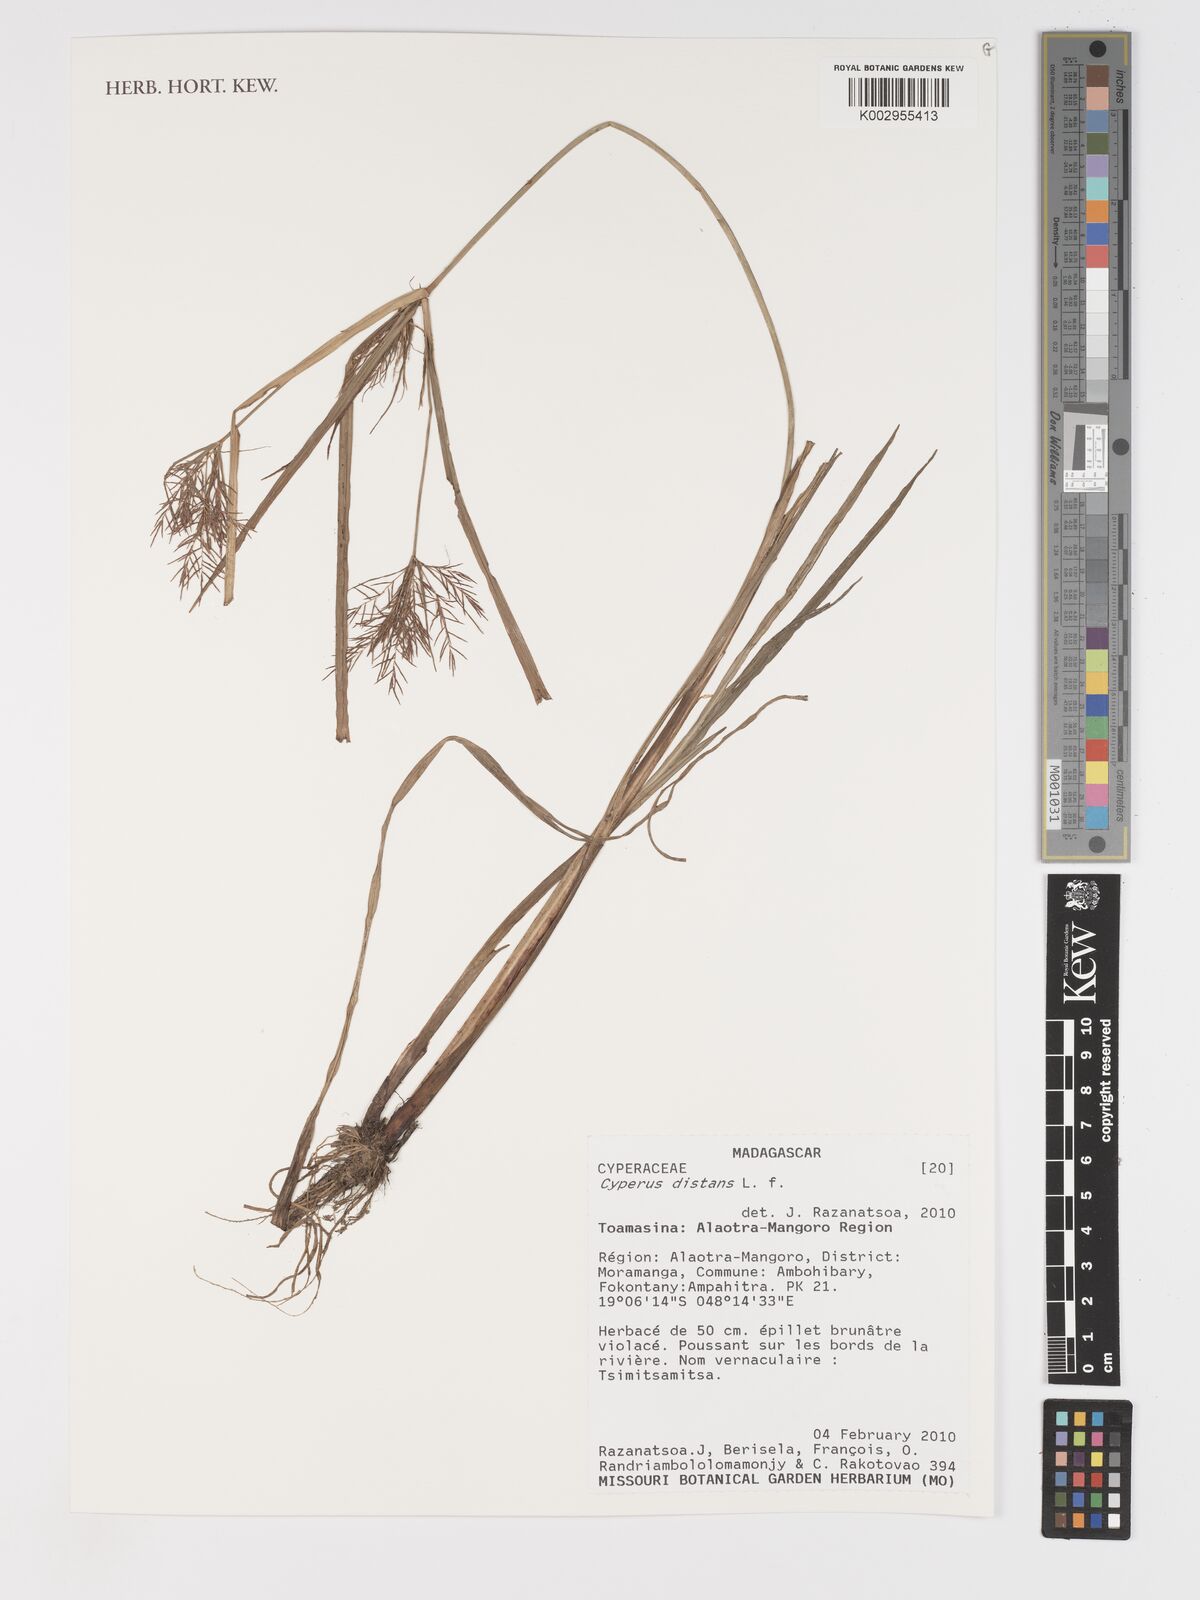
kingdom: Plantae
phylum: Tracheophyta
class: Liliopsida
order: Poales
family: Cyperaceae
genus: Cyperus
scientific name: Cyperus distans
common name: Slender cyperus
